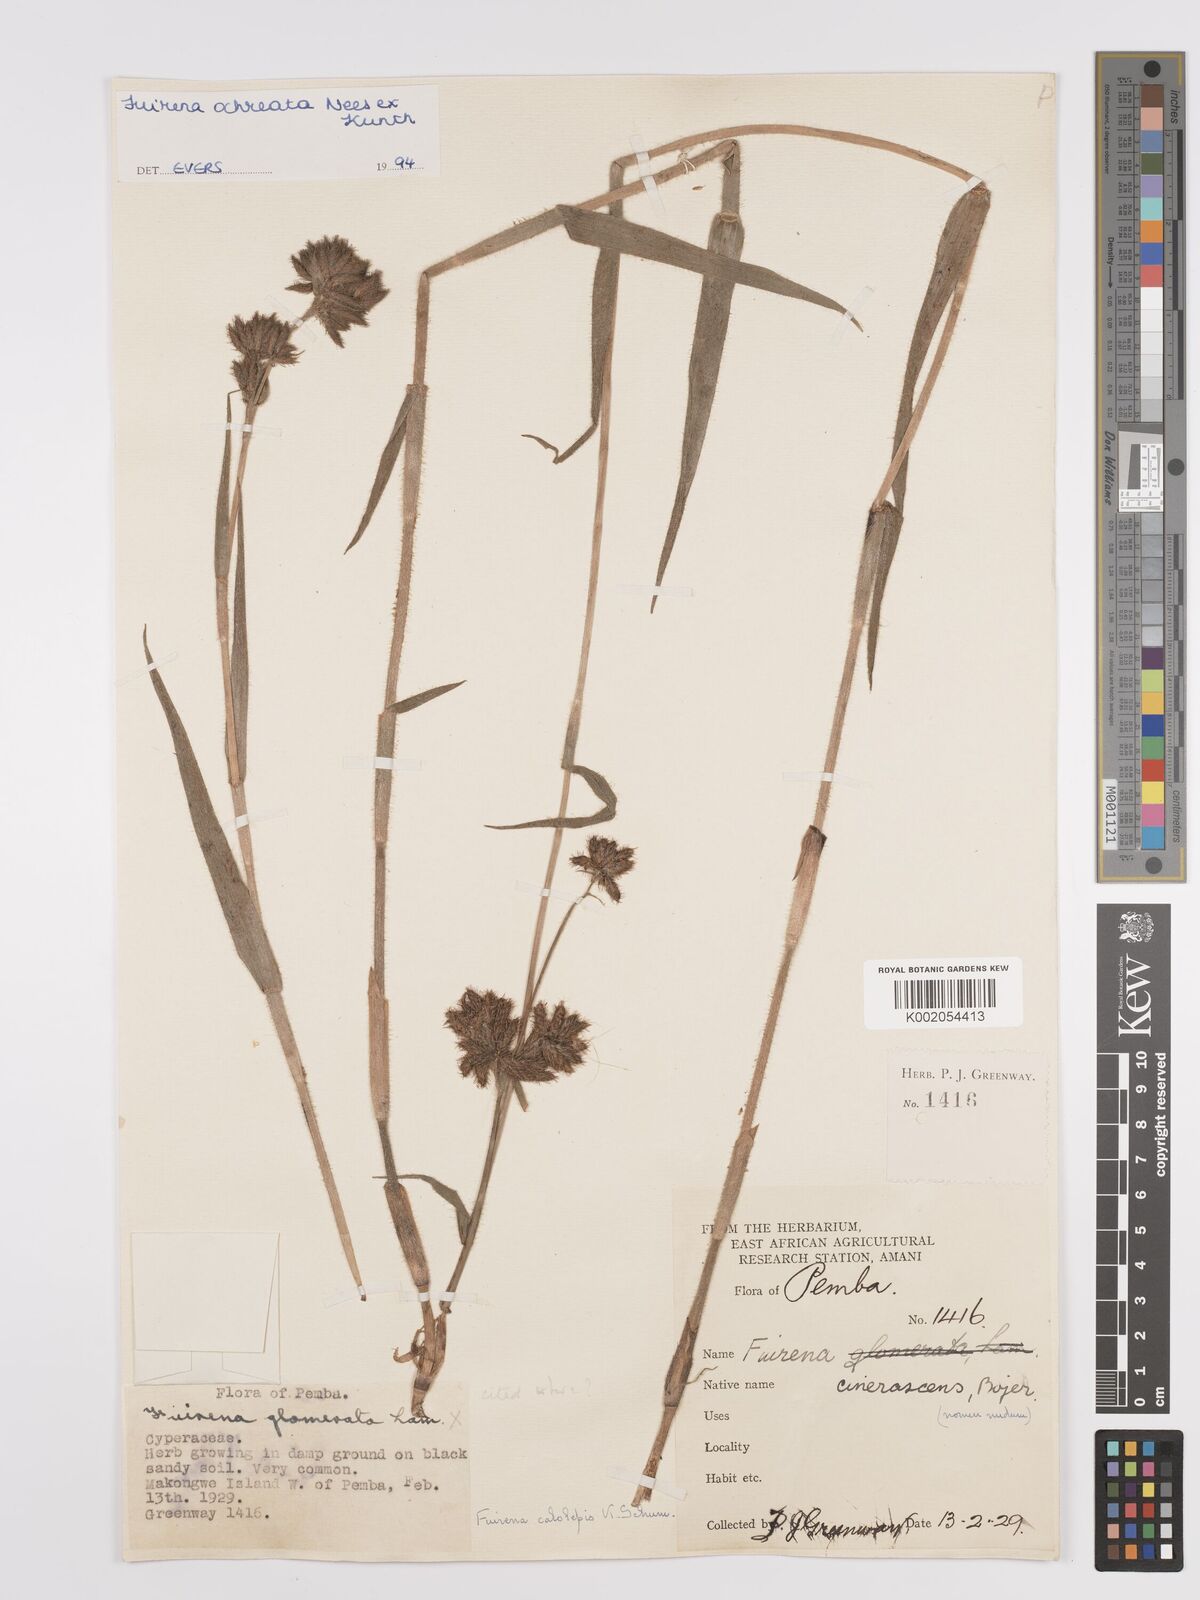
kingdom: Plantae
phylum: Tracheophyta
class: Liliopsida
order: Poales
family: Cyperaceae
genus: Fuirena
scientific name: Fuirena ochreata
